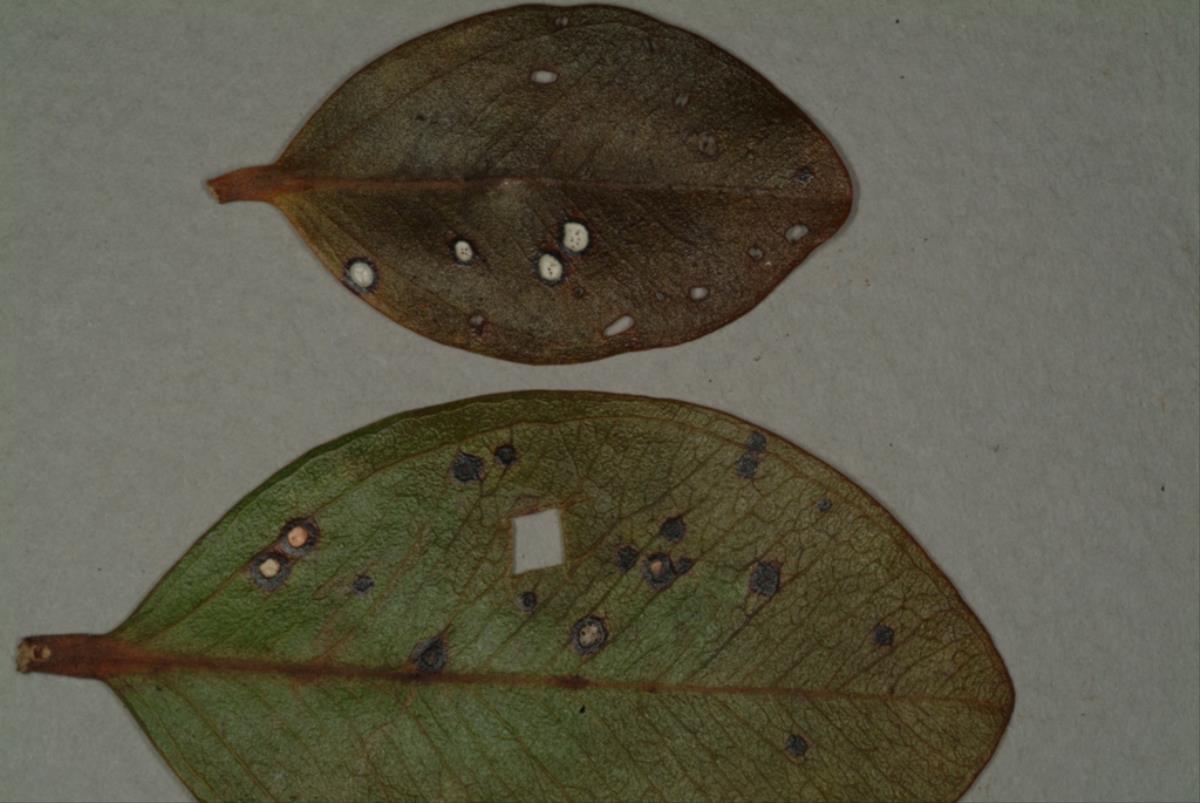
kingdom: Fungi
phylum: Ascomycota
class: Dothideomycetes
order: Mycosphaerellales
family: Mycosphaerellaceae
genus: Pseudocercospora
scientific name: Pseudocercospora metrosideri
